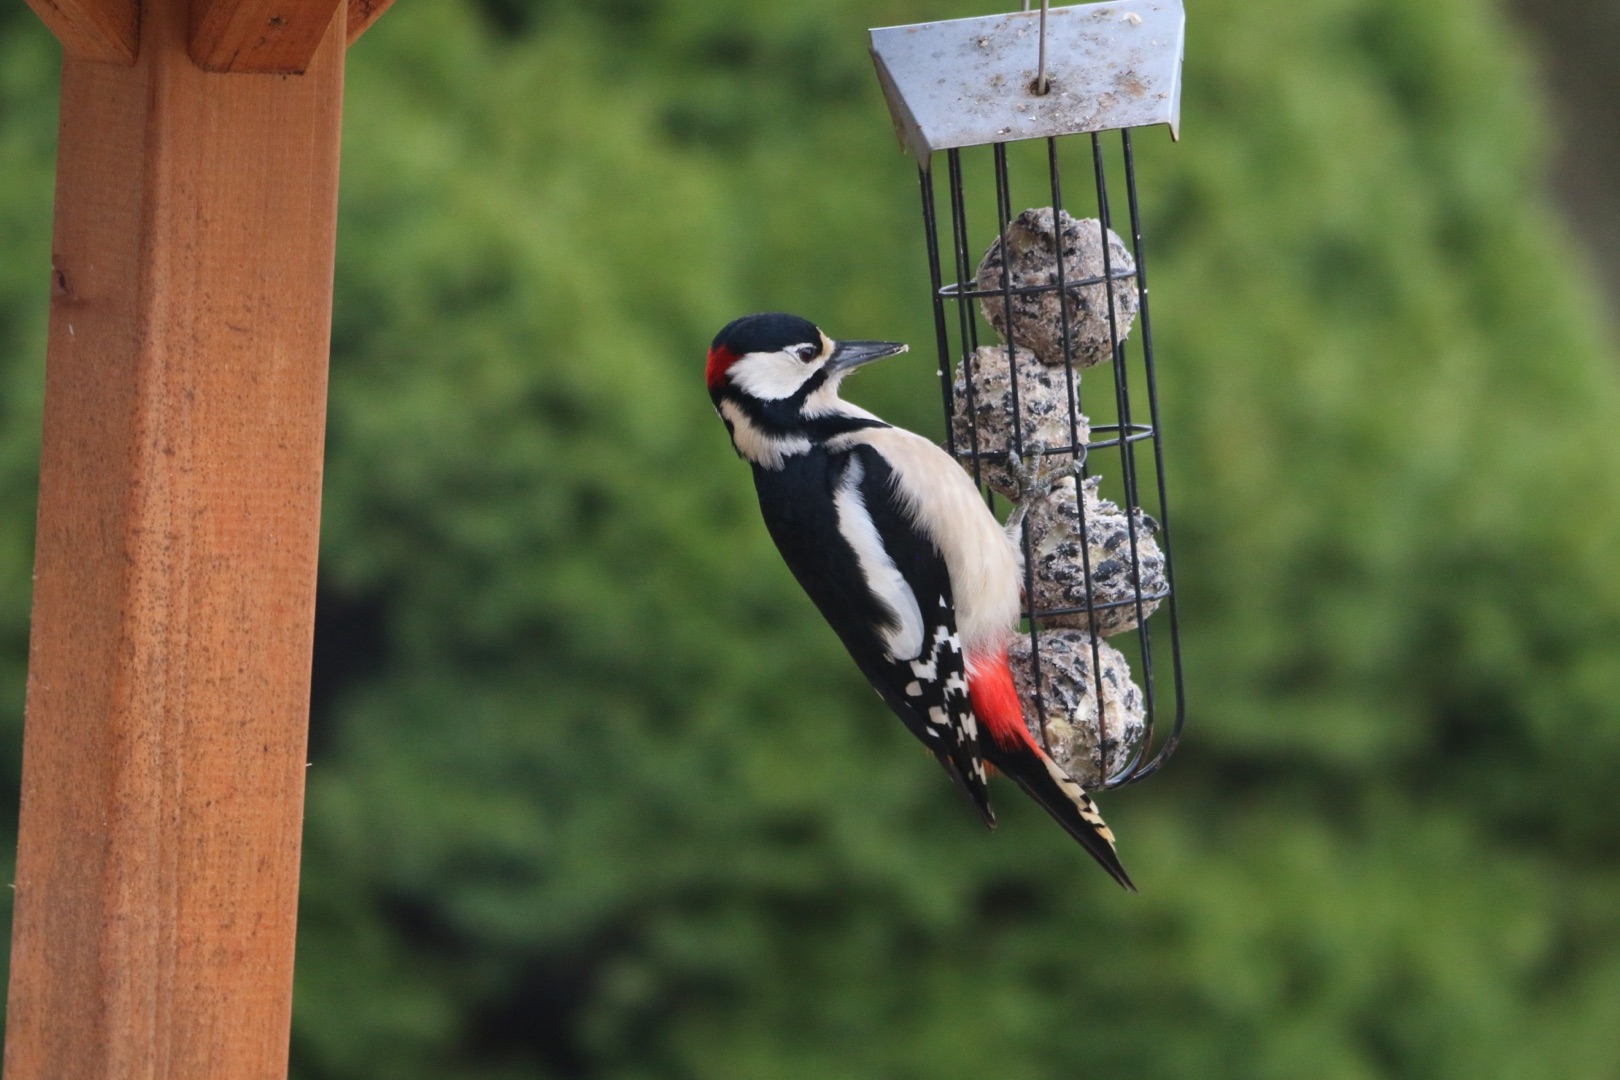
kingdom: Animalia
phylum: Chordata
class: Aves
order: Piciformes
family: Picidae
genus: Dendrocopos
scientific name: Dendrocopos major
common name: Stor flagspætte
